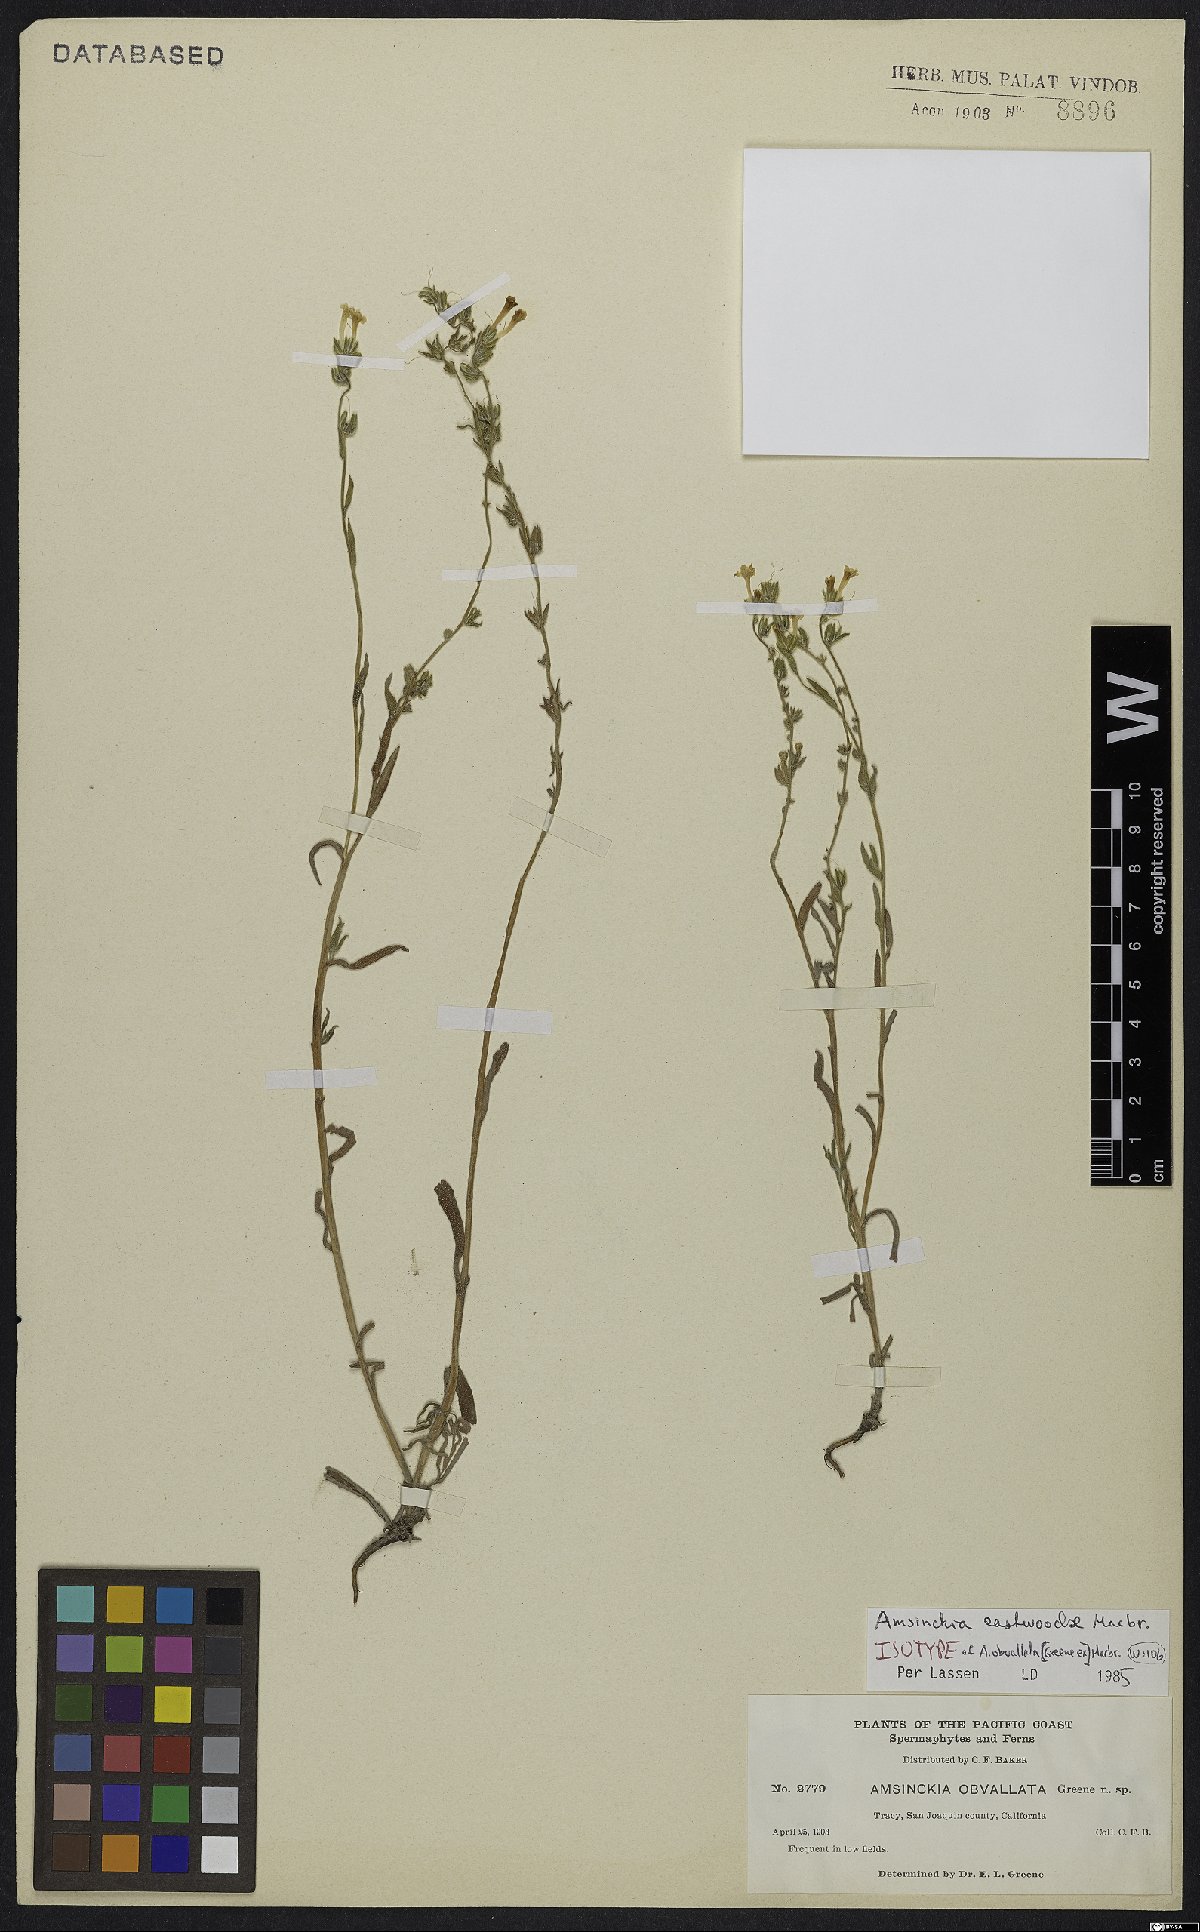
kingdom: Plantae
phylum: Tracheophyta
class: Magnoliopsida
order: Boraginales
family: Boraginaceae
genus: Amsinckia
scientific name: Amsinckia eastwoodiae
